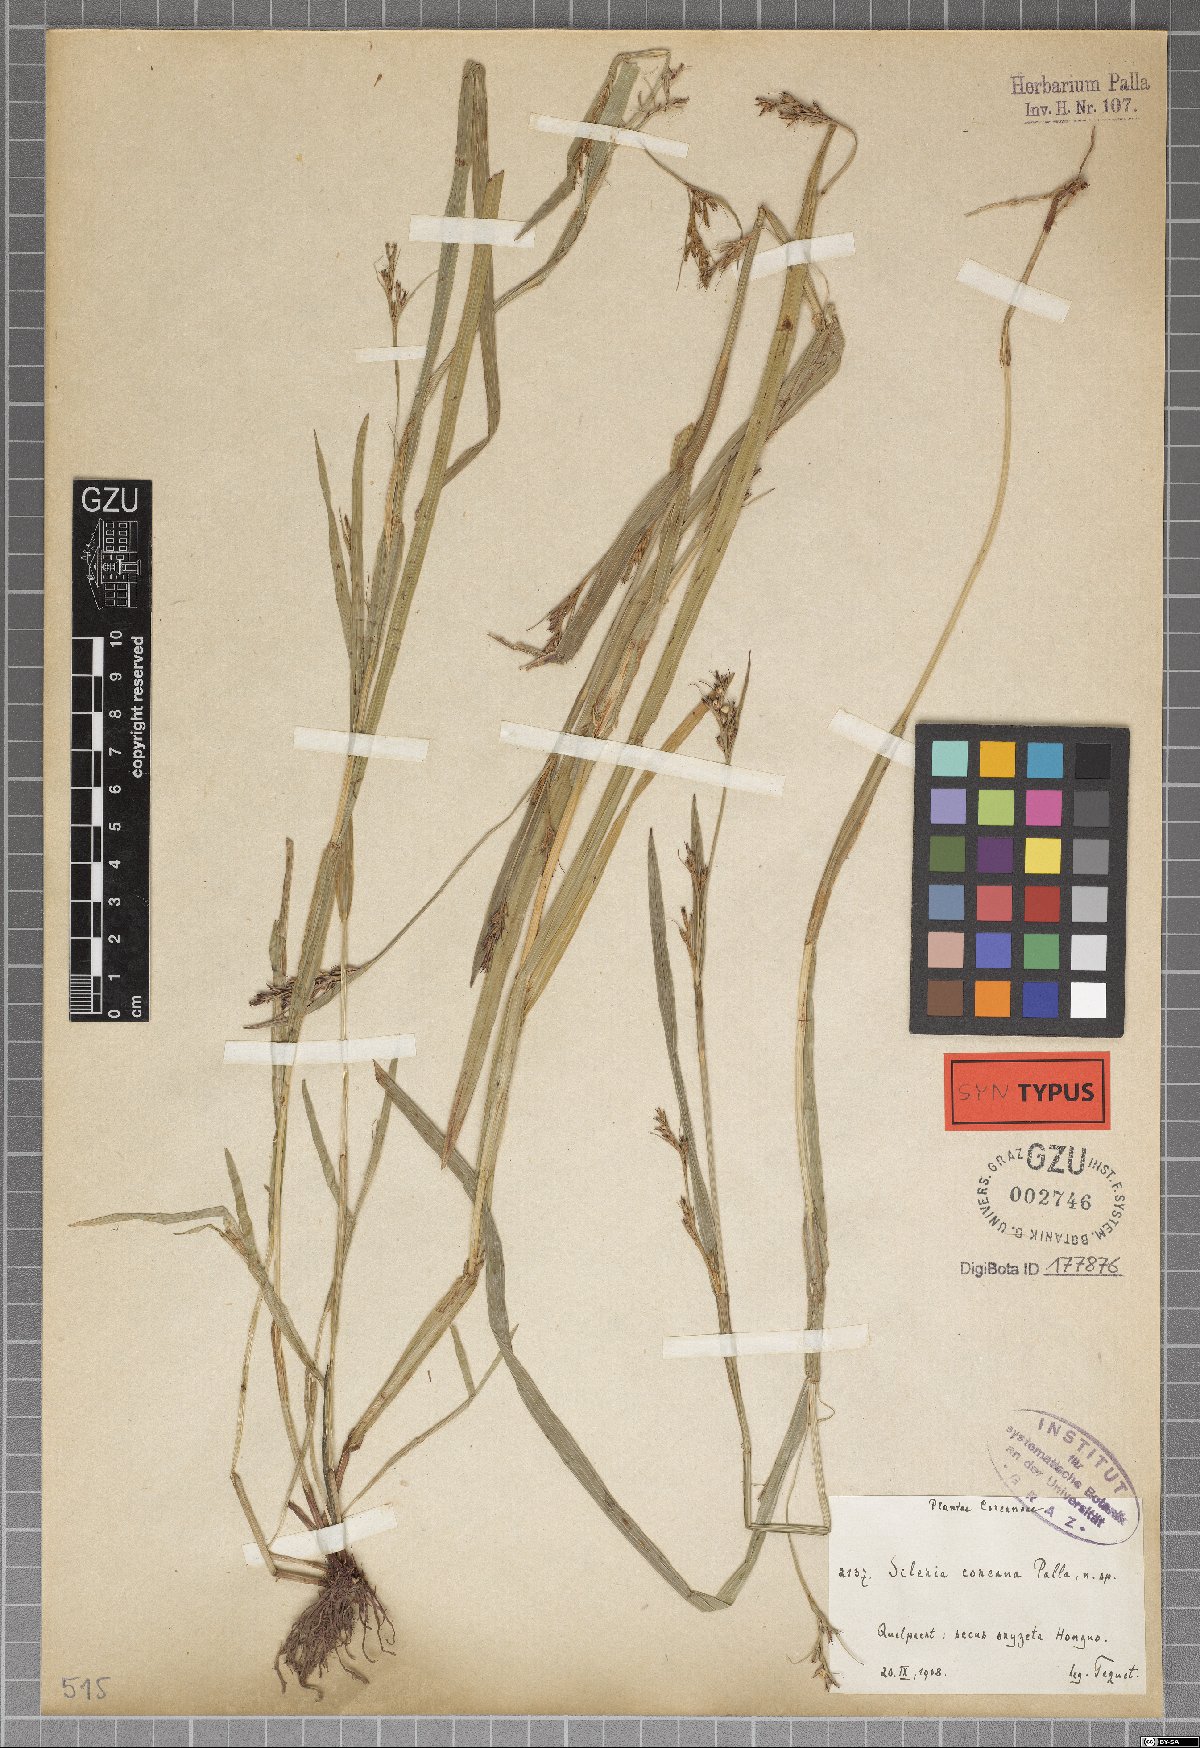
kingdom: Plantae
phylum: Tracheophyta
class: Liliopsida
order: Poales
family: Cyperaceae
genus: Scleria
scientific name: Scleria parvula
